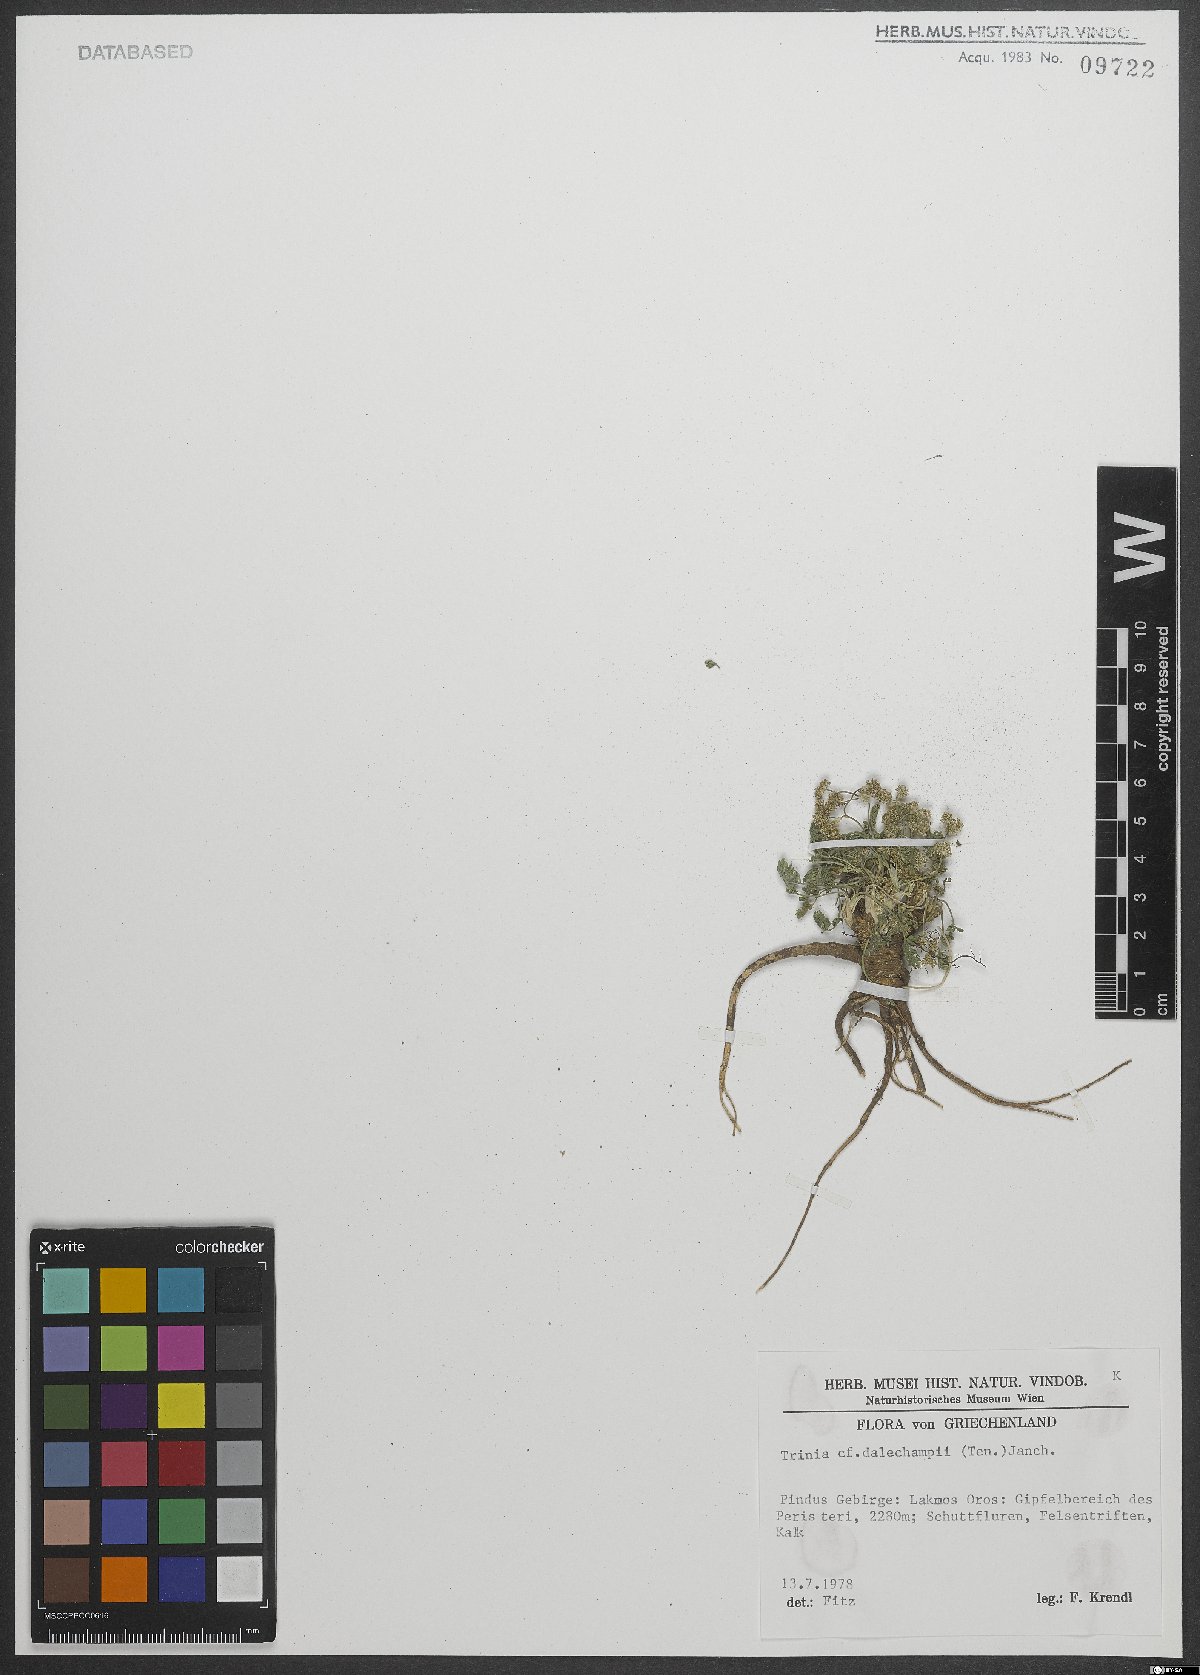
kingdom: Plantae
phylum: Tracheophyta
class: Magnoliopsida
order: Apiales
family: Apiaceae
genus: Trinia
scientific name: Trinia dalechampii
